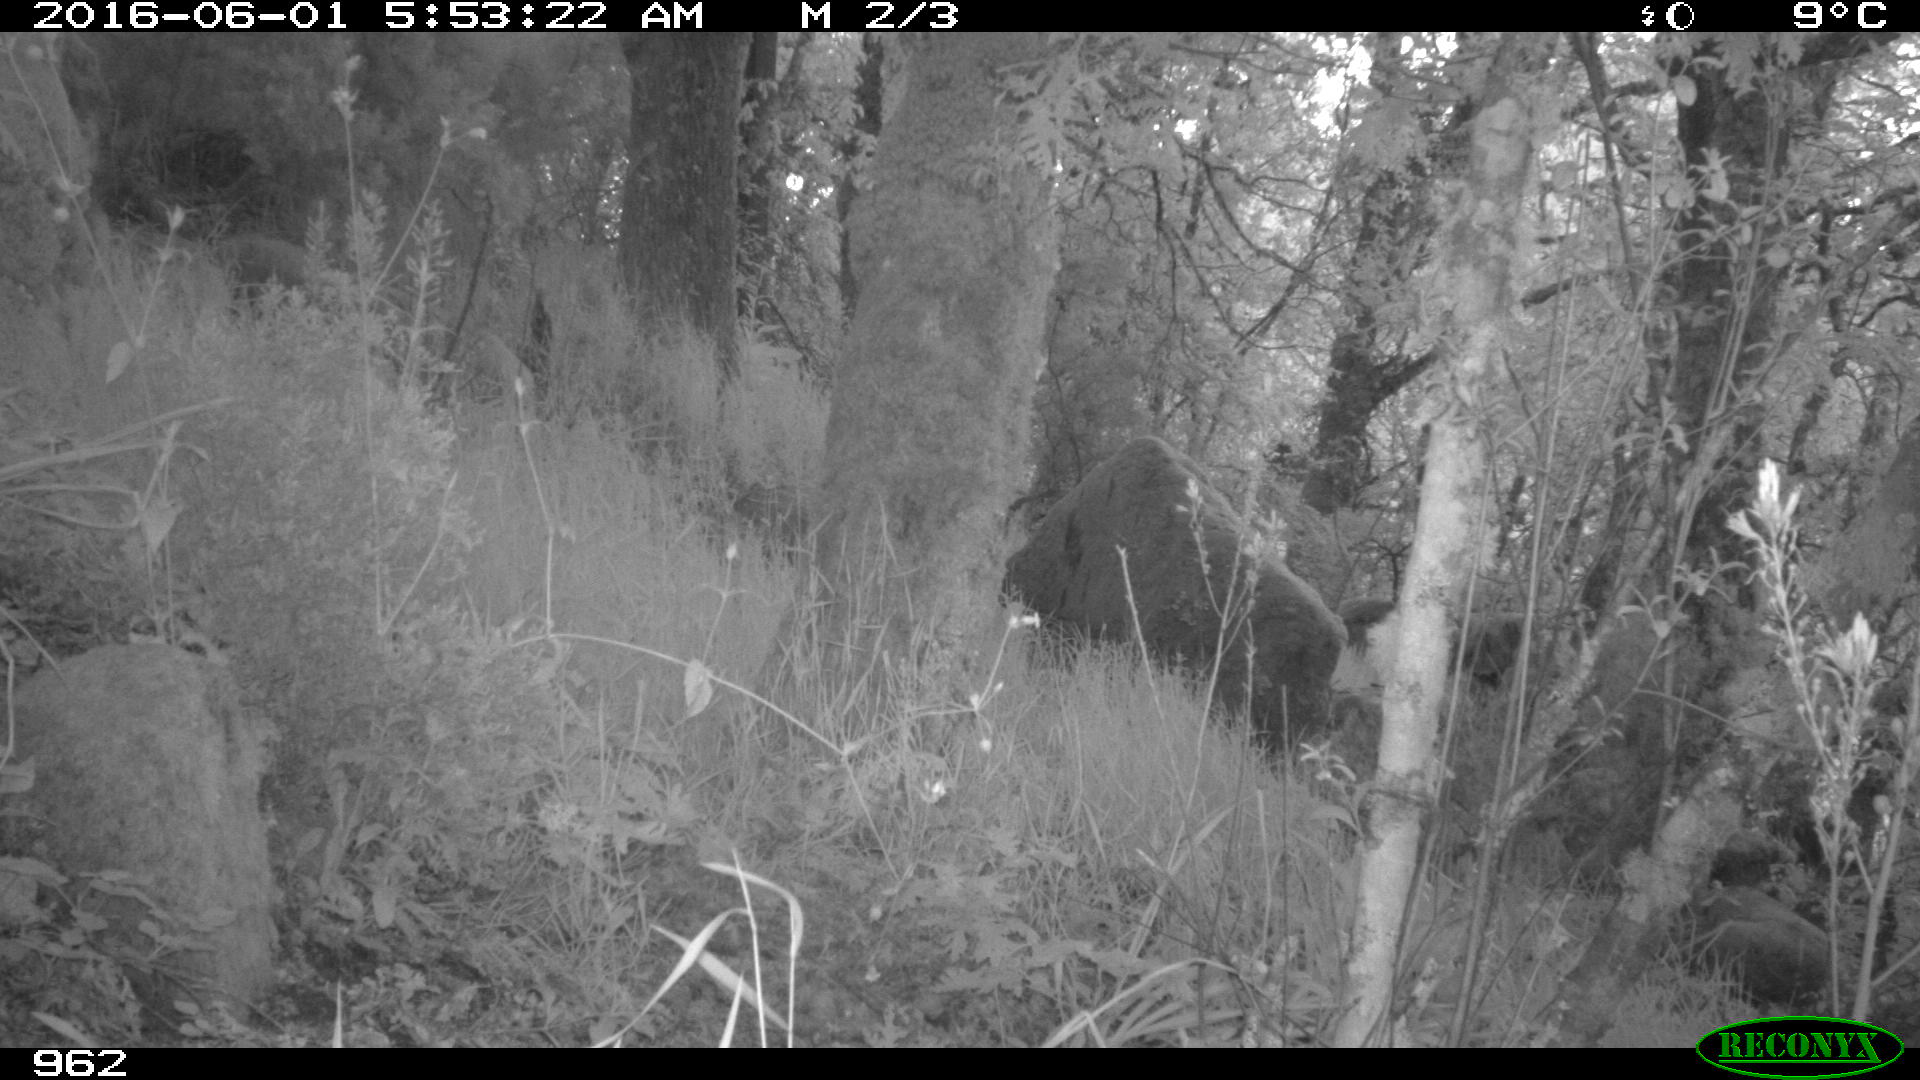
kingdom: Animalia
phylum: Chordata
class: Mammalia
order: Artiodactyla
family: Cervidae
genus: Capreolus
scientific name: Capreolus capreolus
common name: Western roe deer
